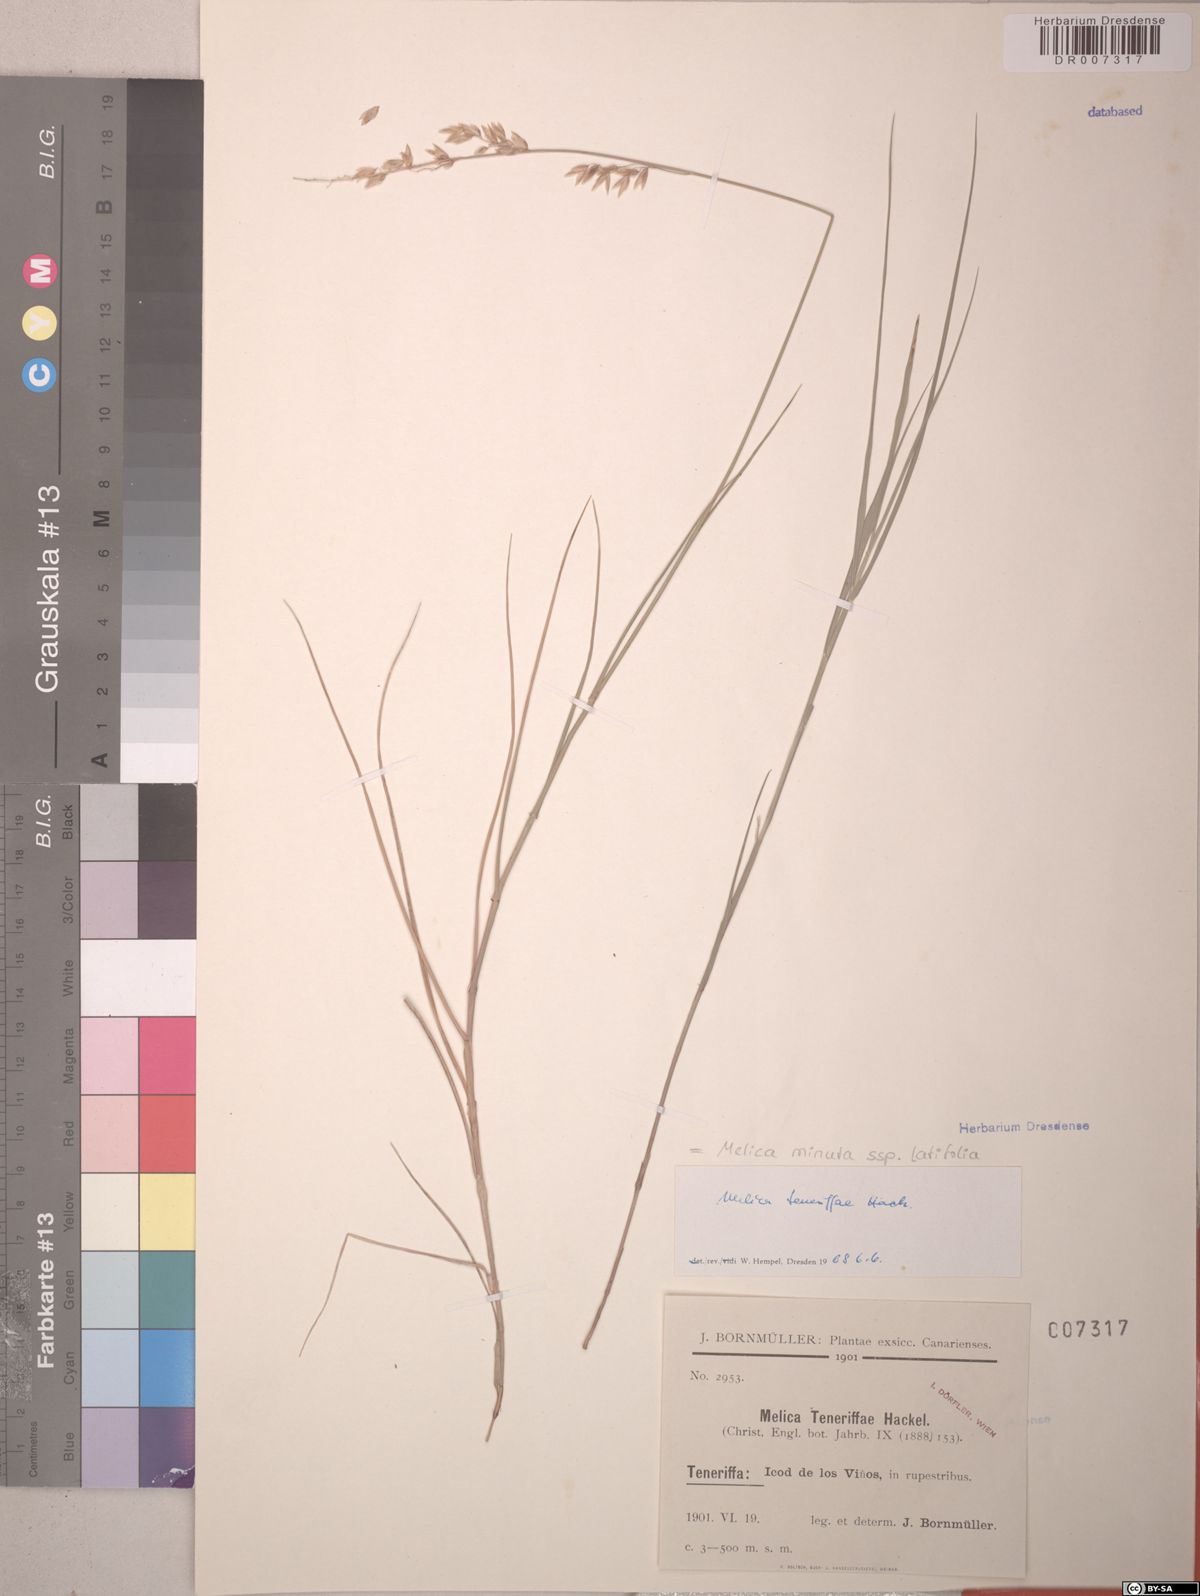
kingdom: Plantae
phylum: Tracheophyta
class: Liliopsida
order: Poales
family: Poaceae
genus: Melica
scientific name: Melica minuta
